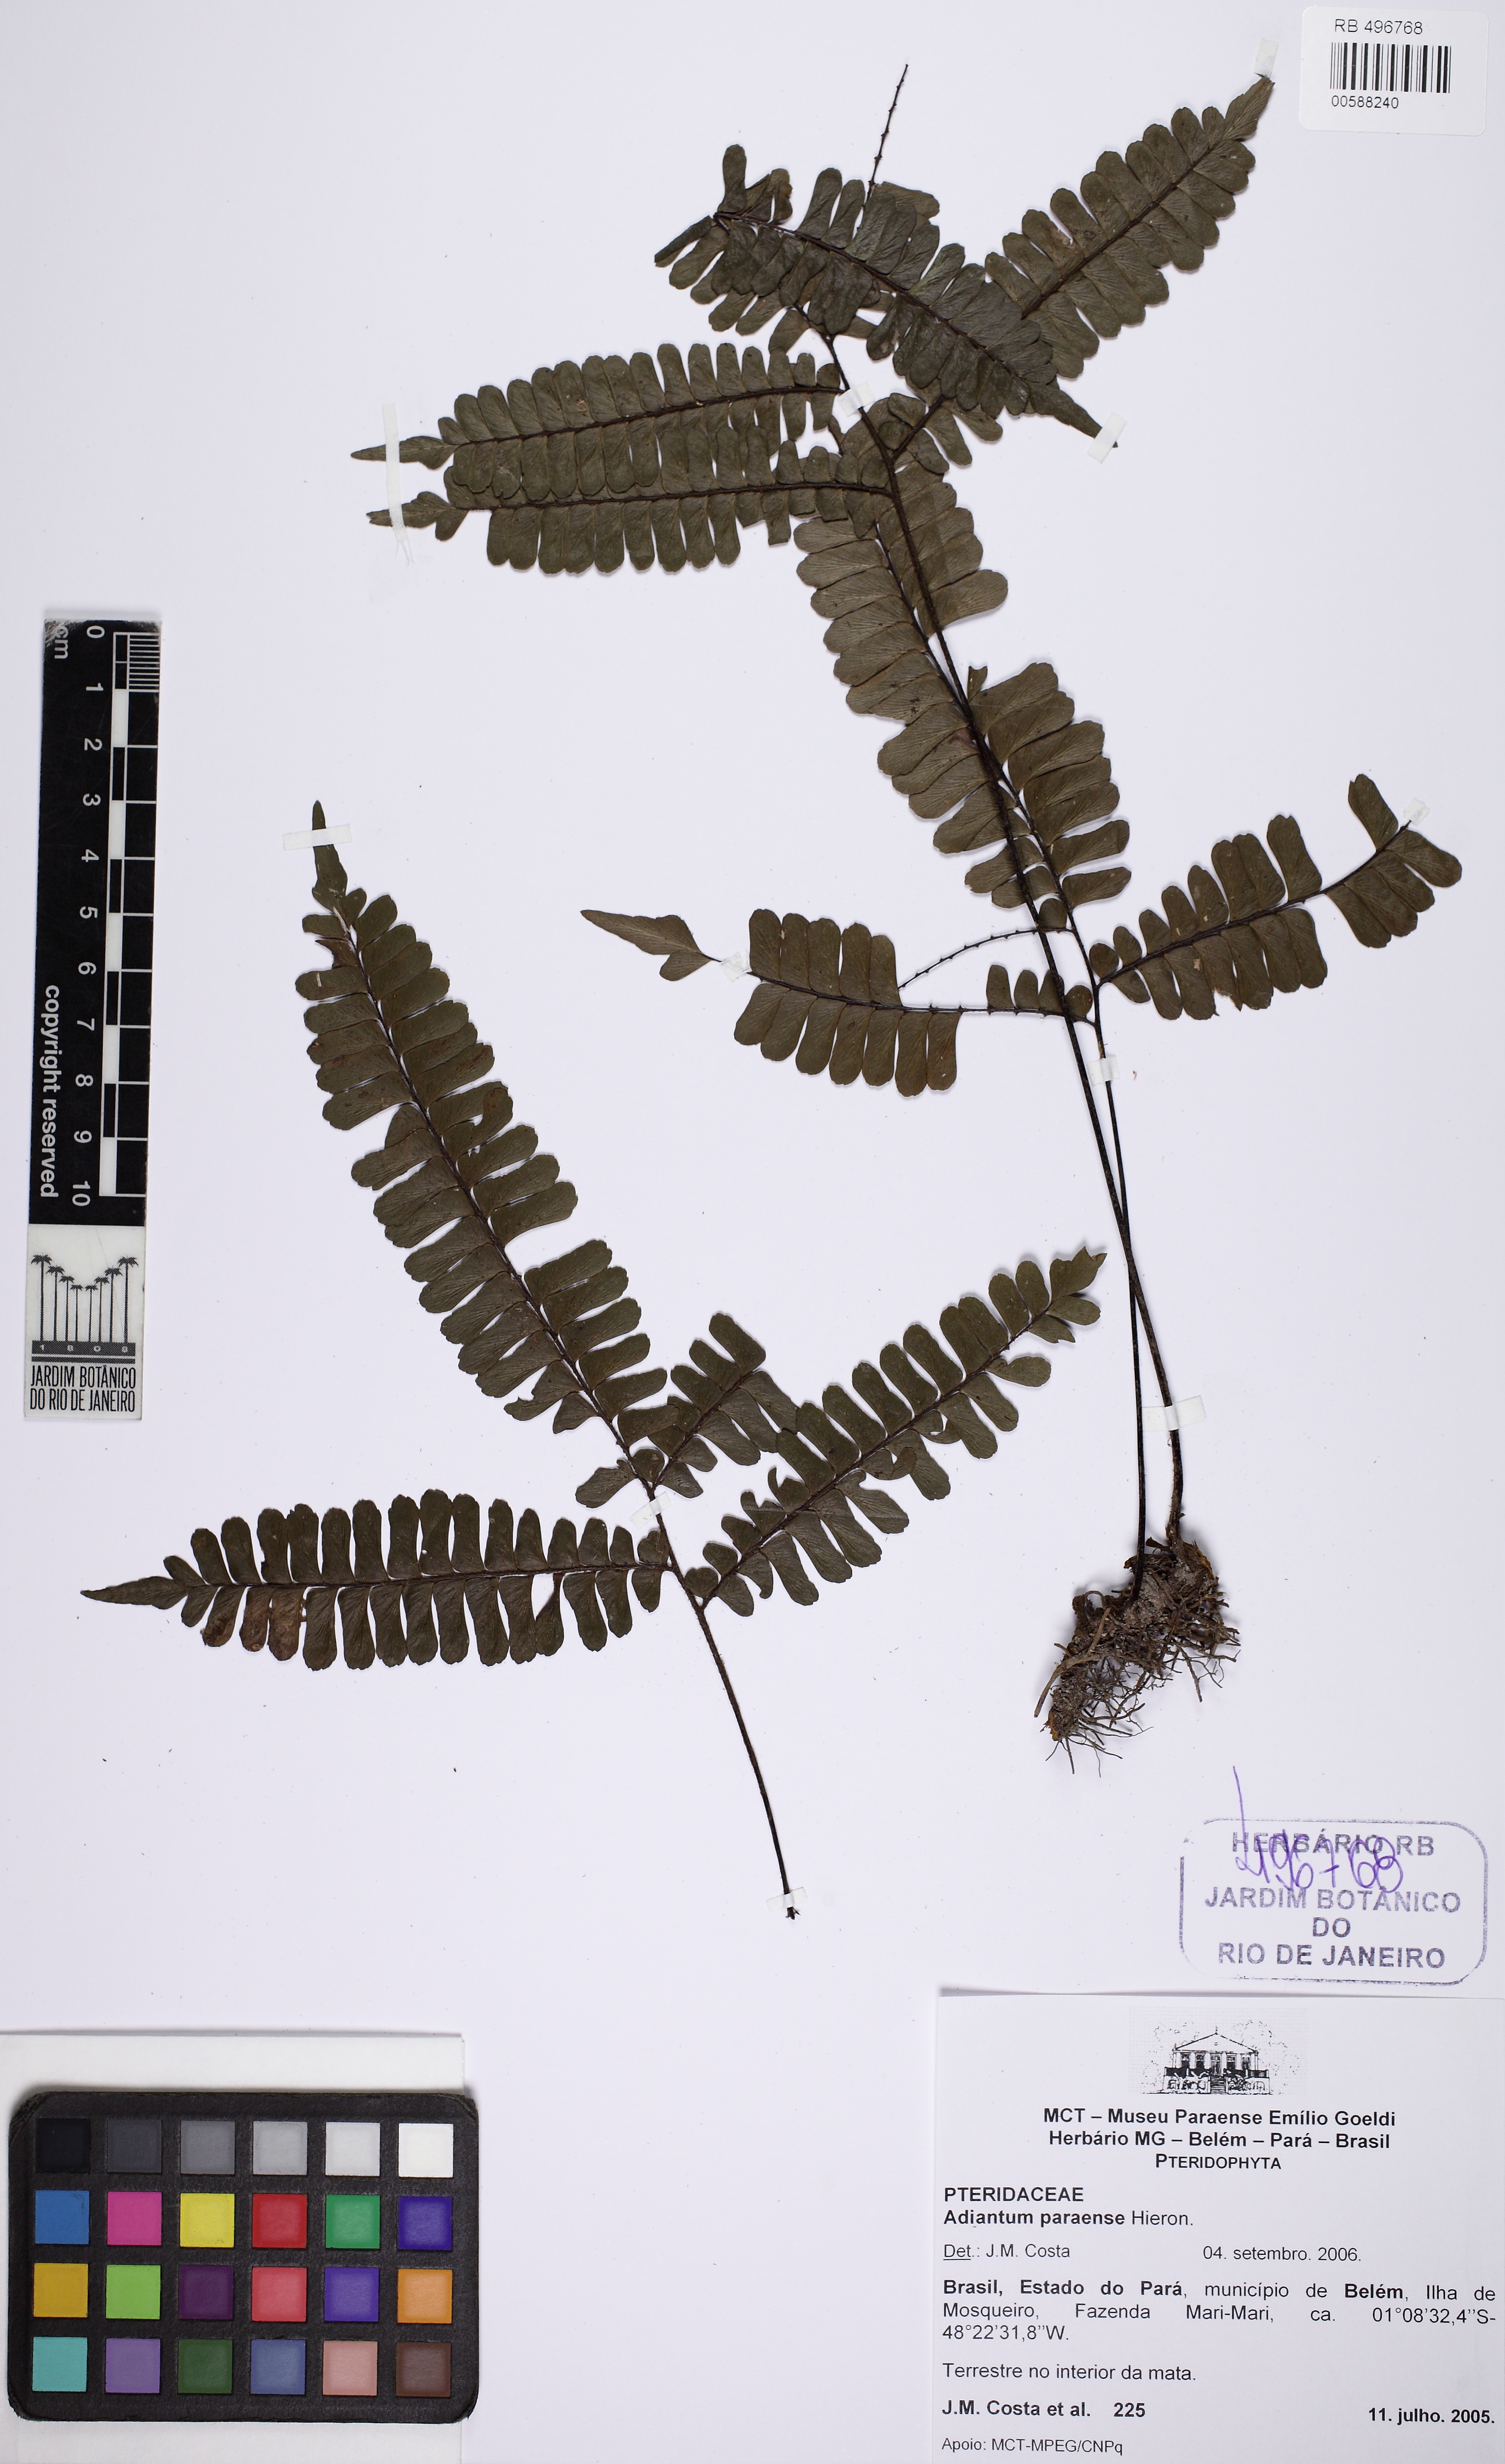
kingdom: Plantae
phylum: Tracheophyta
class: Polypodiopsida
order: Polypodiales
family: Pteridaceae
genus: Adiantum
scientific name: Adiantum paraense
